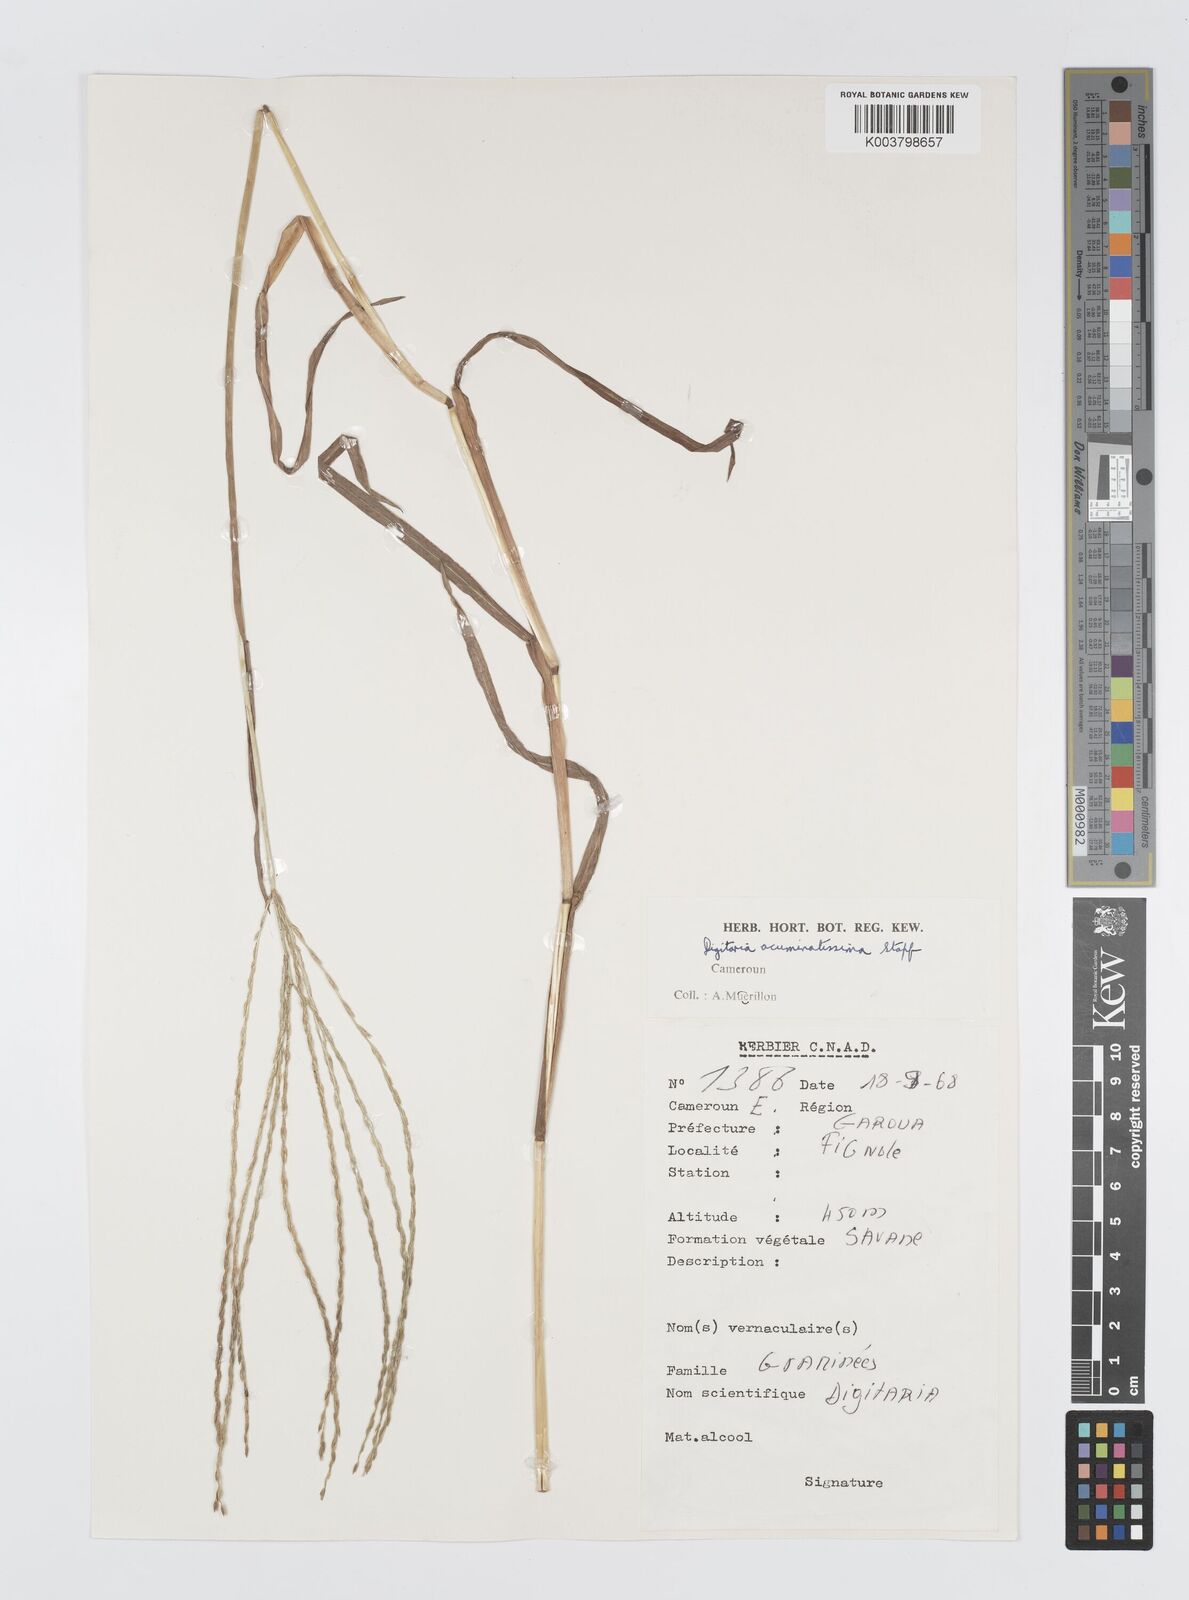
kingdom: Plantae
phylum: Tracheophyta
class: Liliopsida
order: Poales
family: Poaceae
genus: Digitaria
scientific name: Digitaria acuminatissima
